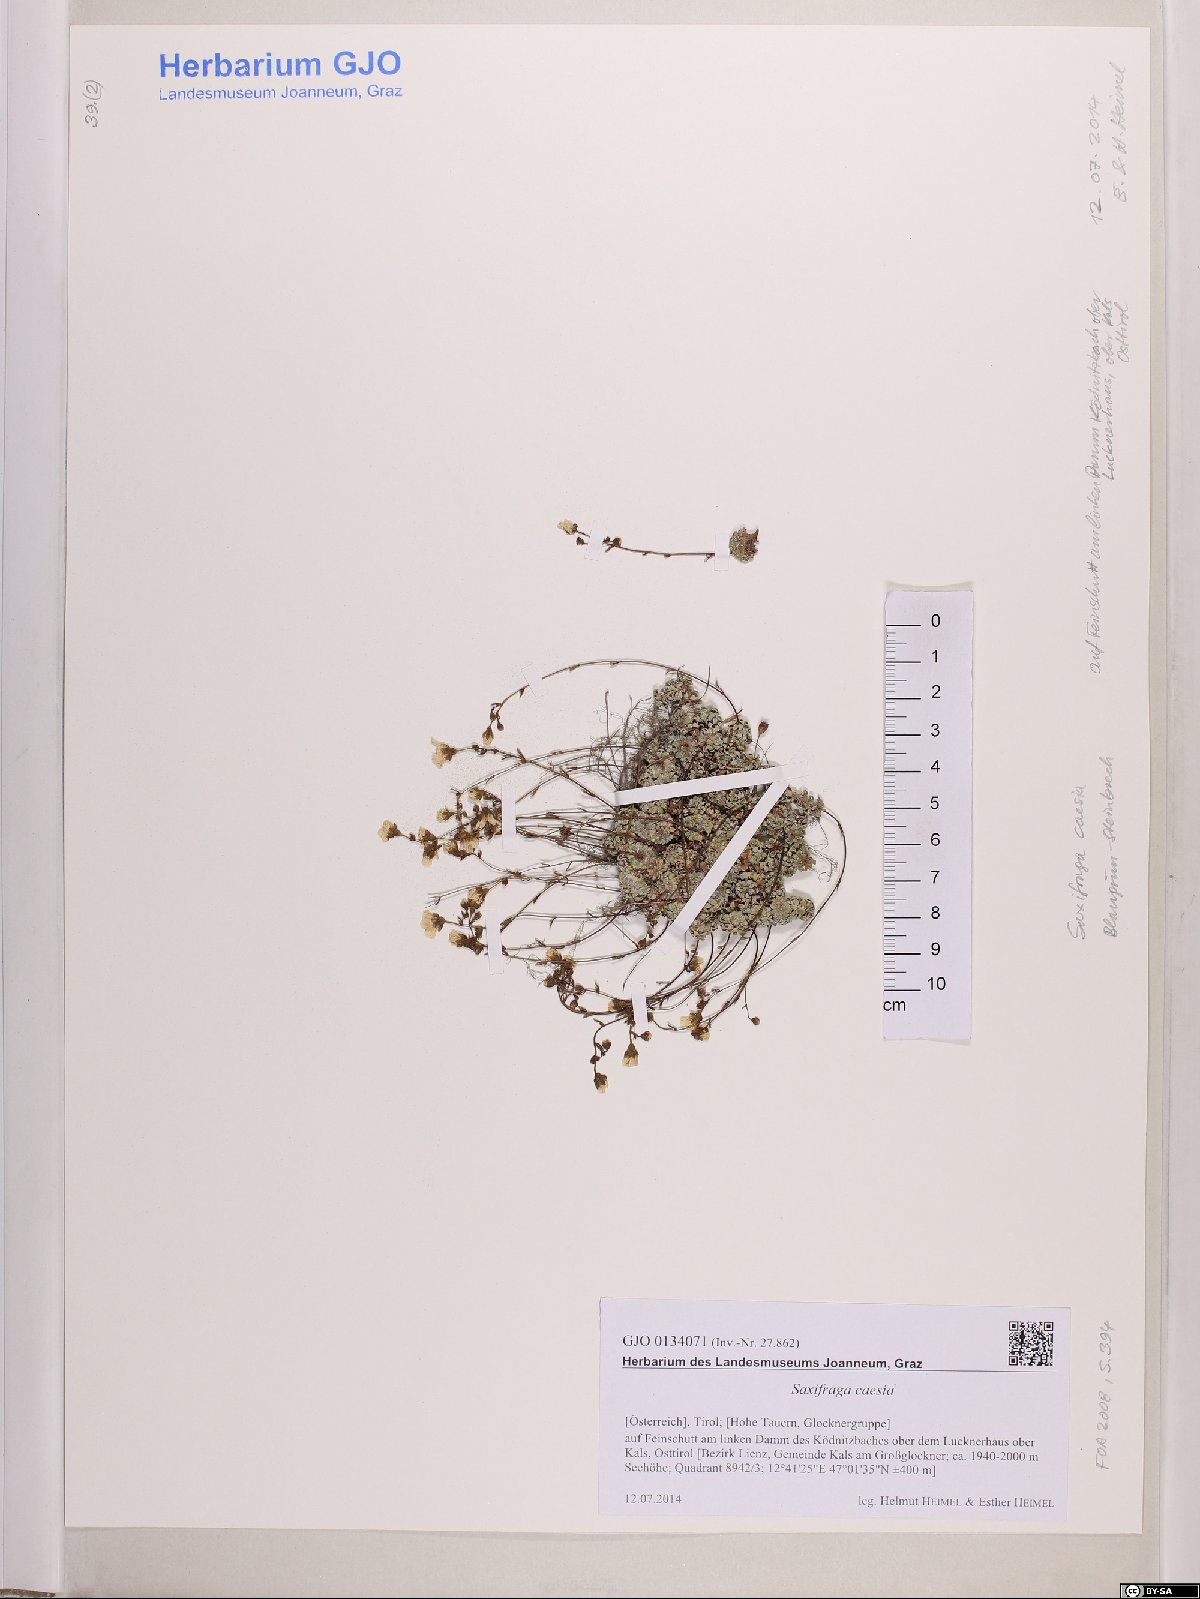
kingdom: Plantae
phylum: Tracheophyta
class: Magnoliopsida
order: Saxifragales
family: Saxifragaceae
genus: Saxifraga
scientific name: Saxifraga caesia
